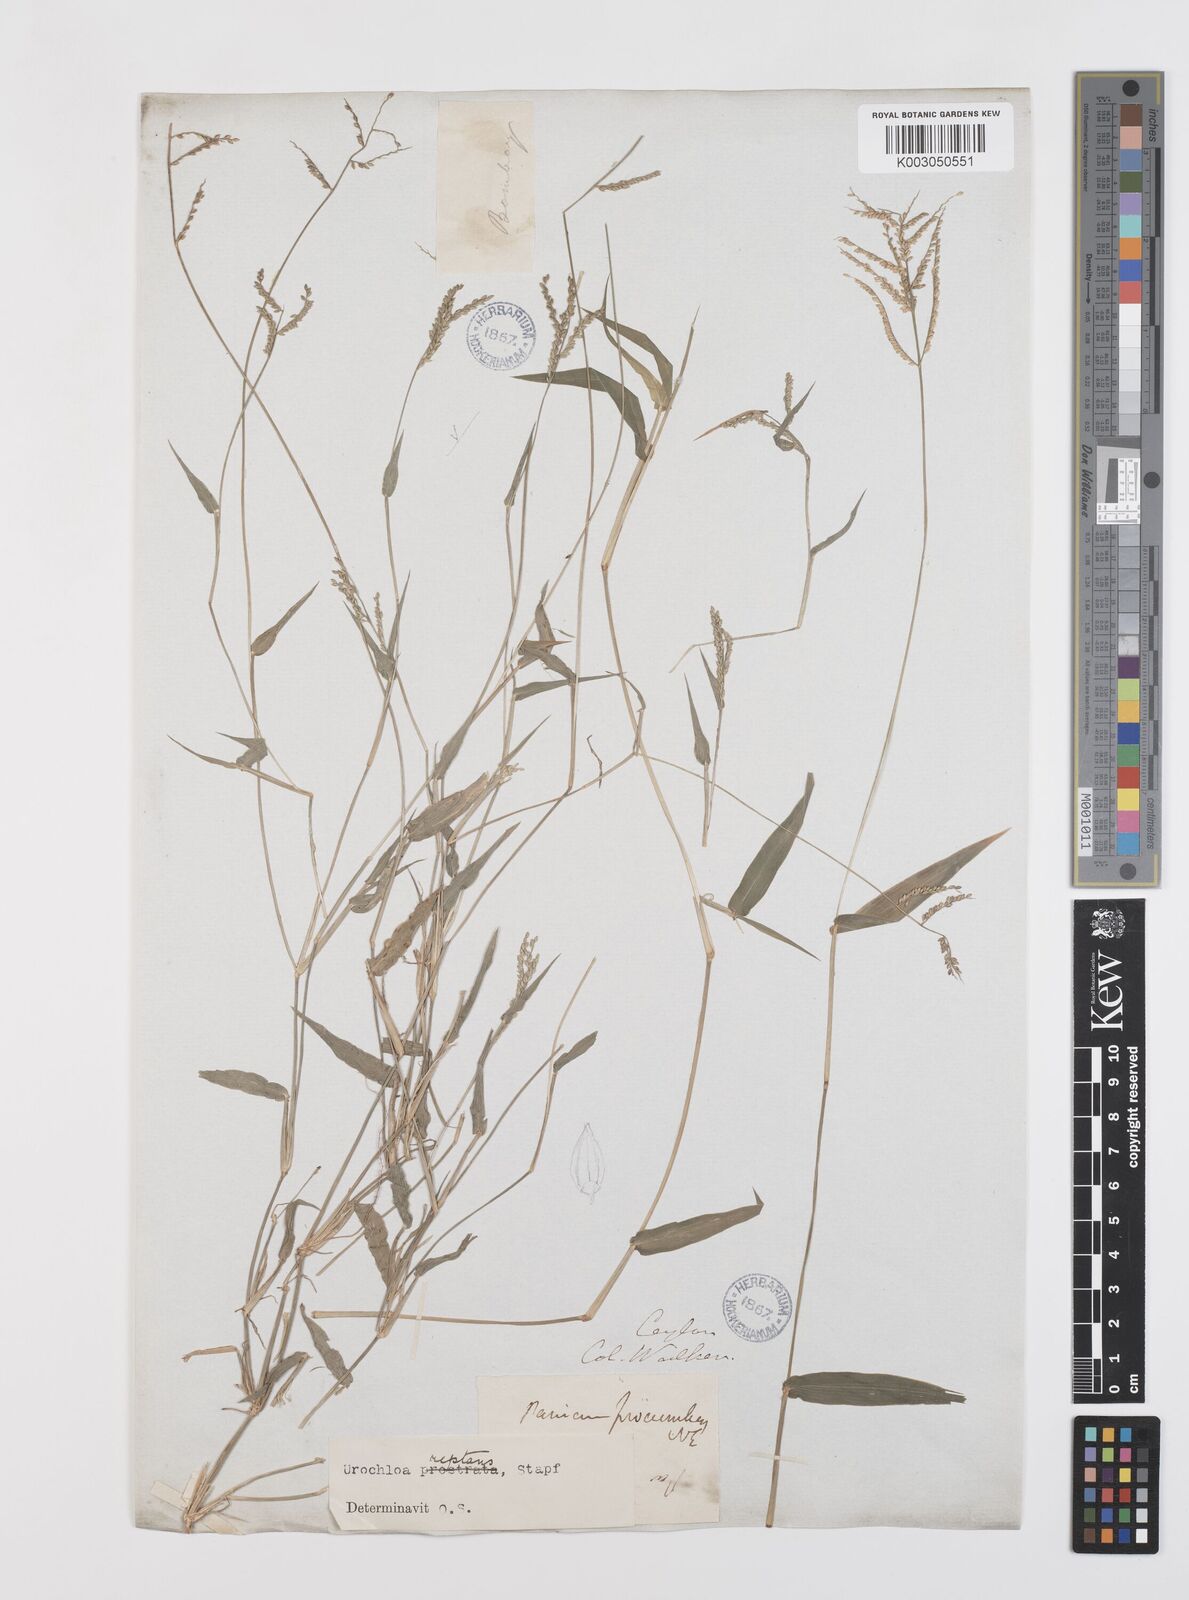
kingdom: Plantae
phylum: Tracheophyta
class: Liliopsida
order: Poales
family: Poaceae
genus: Urochloa
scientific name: Urochloa reptans
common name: Sprawling signalgrass
